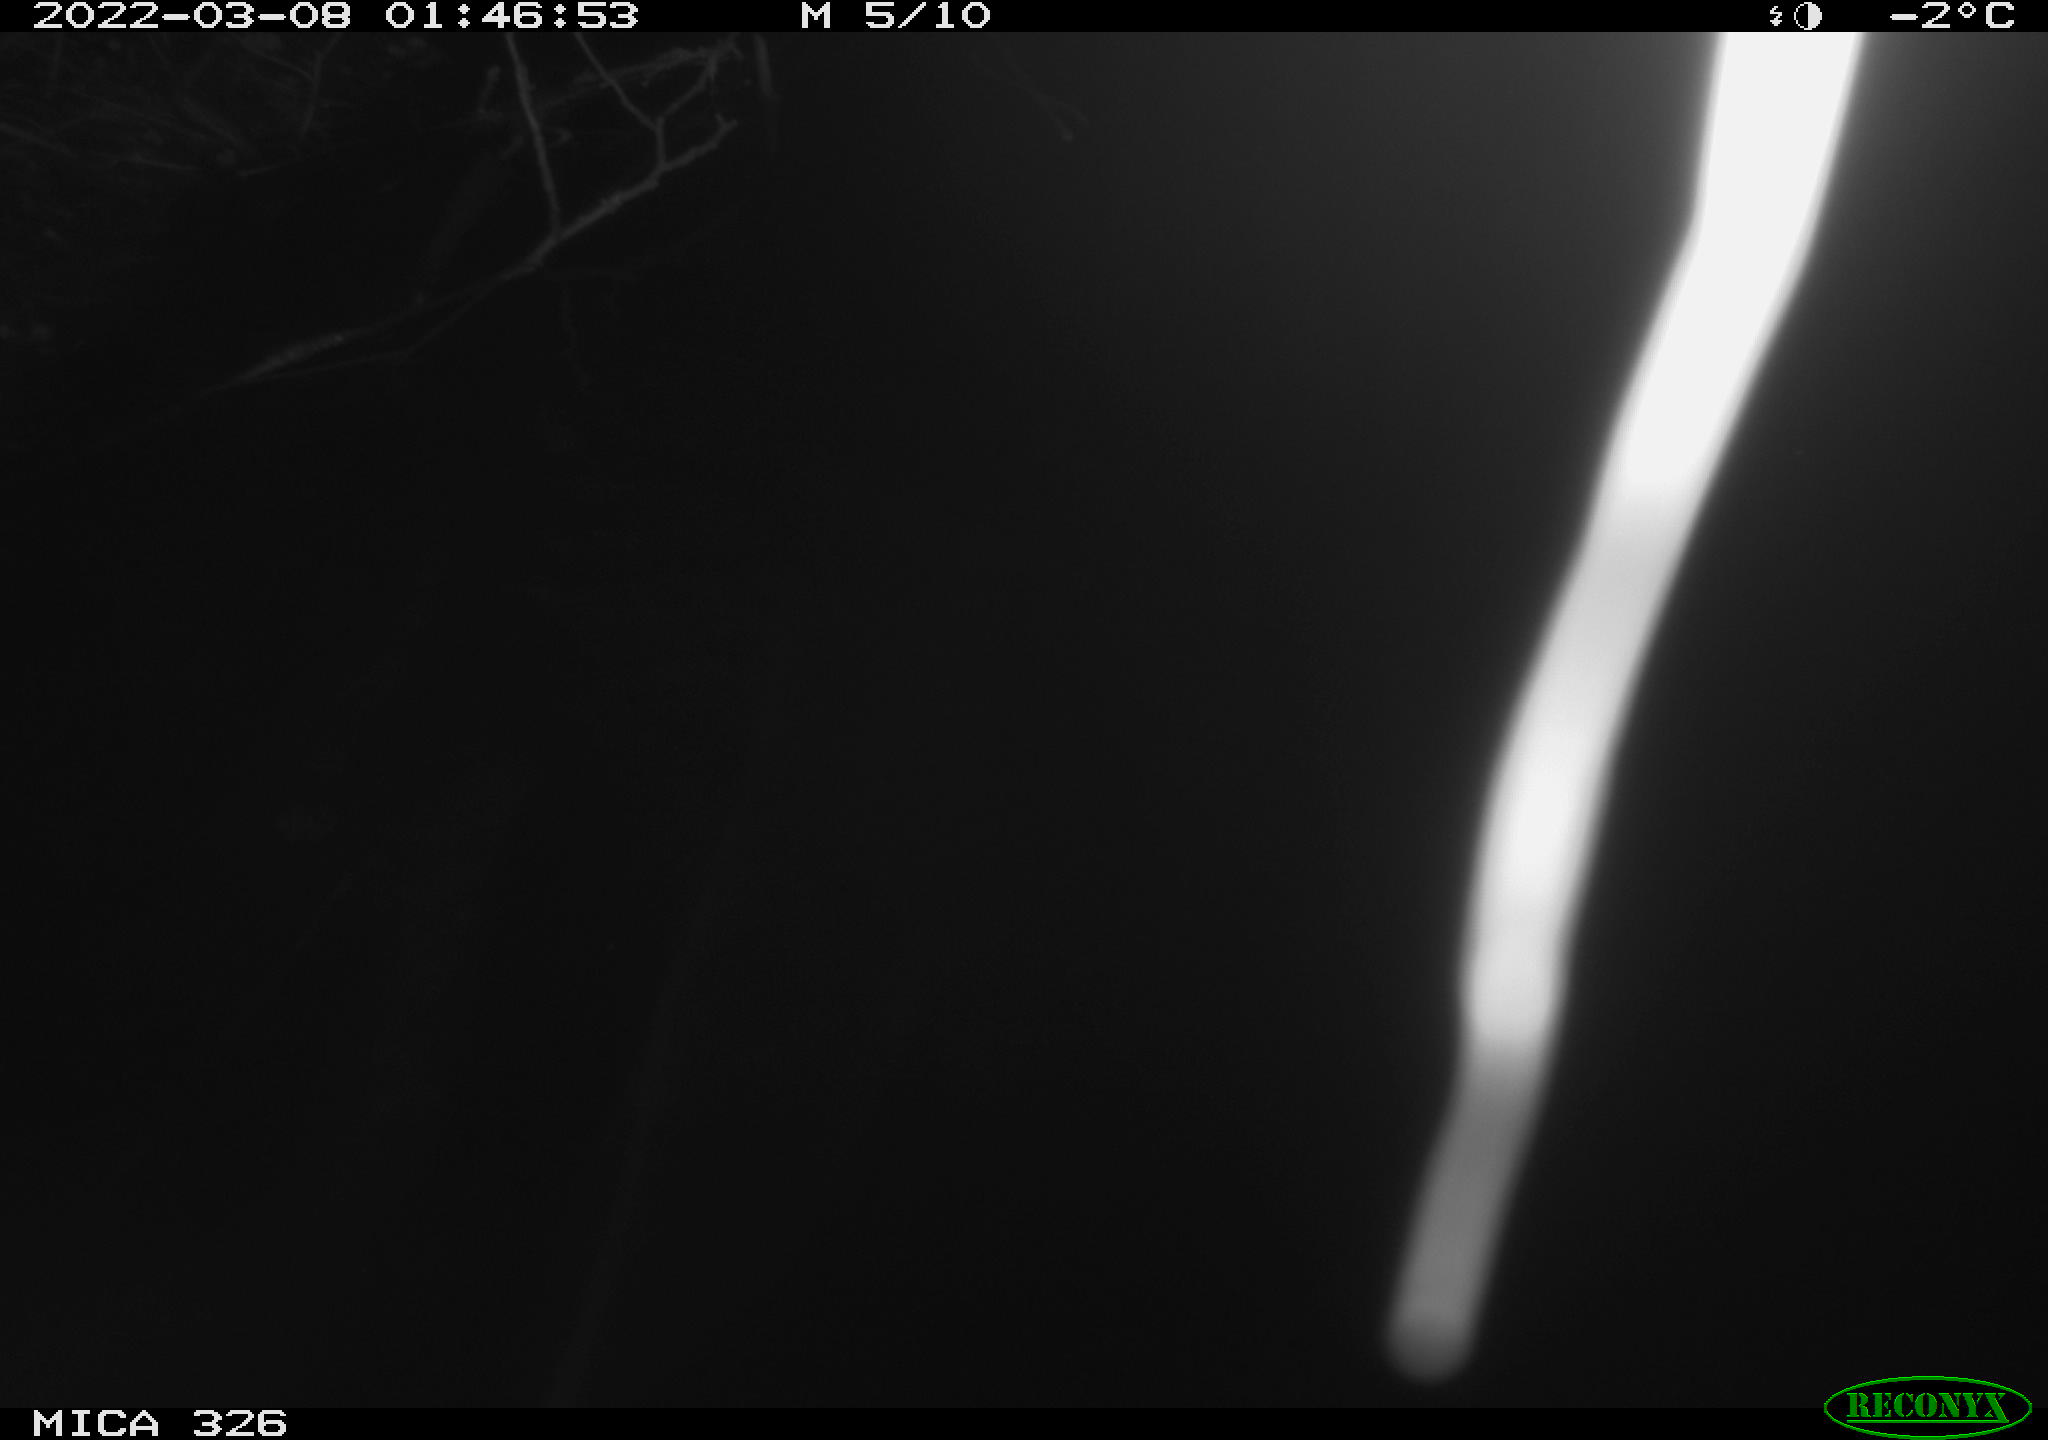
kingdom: Animalia
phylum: Chordata
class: Mammalia
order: Rodentia
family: Muridae
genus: Rattus
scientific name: Rattus norvegicus
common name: Brown rat
